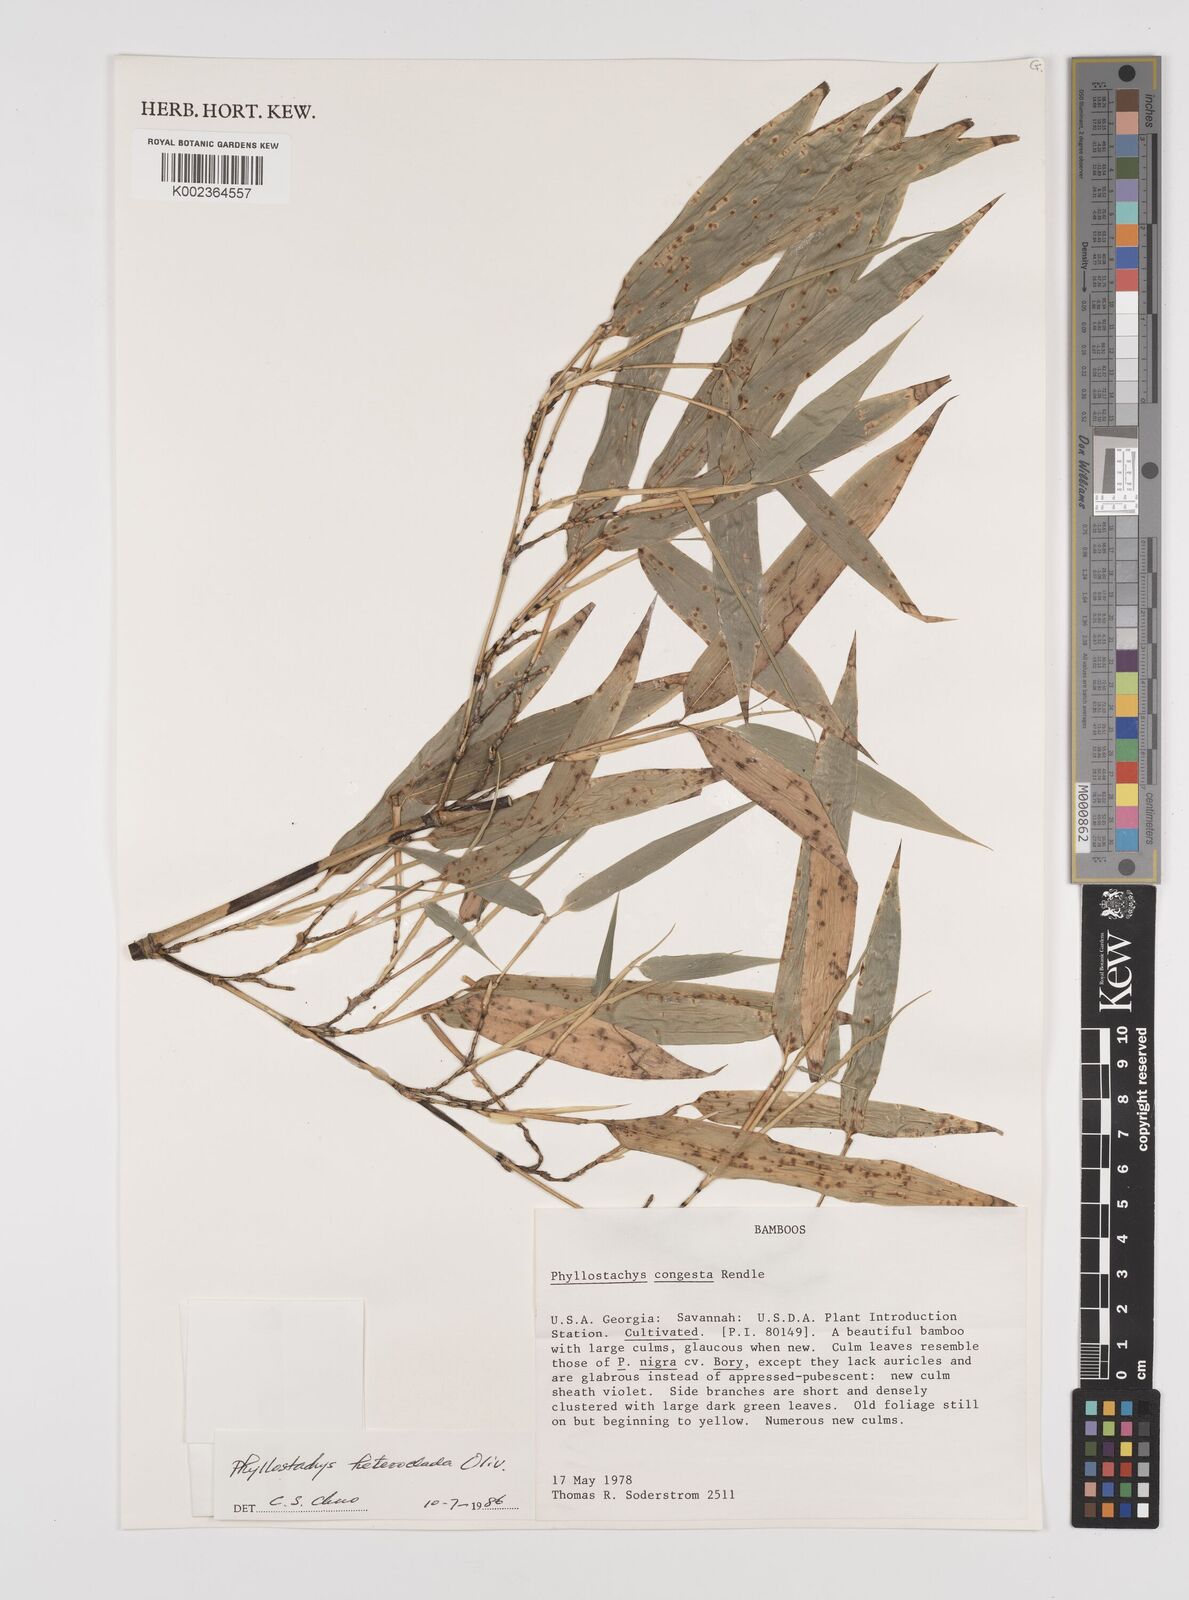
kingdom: Plantae
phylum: Tracheophyta
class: Liliopsida
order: Poales
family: Poaceae
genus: Phyllostachys
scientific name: Phyllostachys heteroclada
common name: Fishscale bamboo
